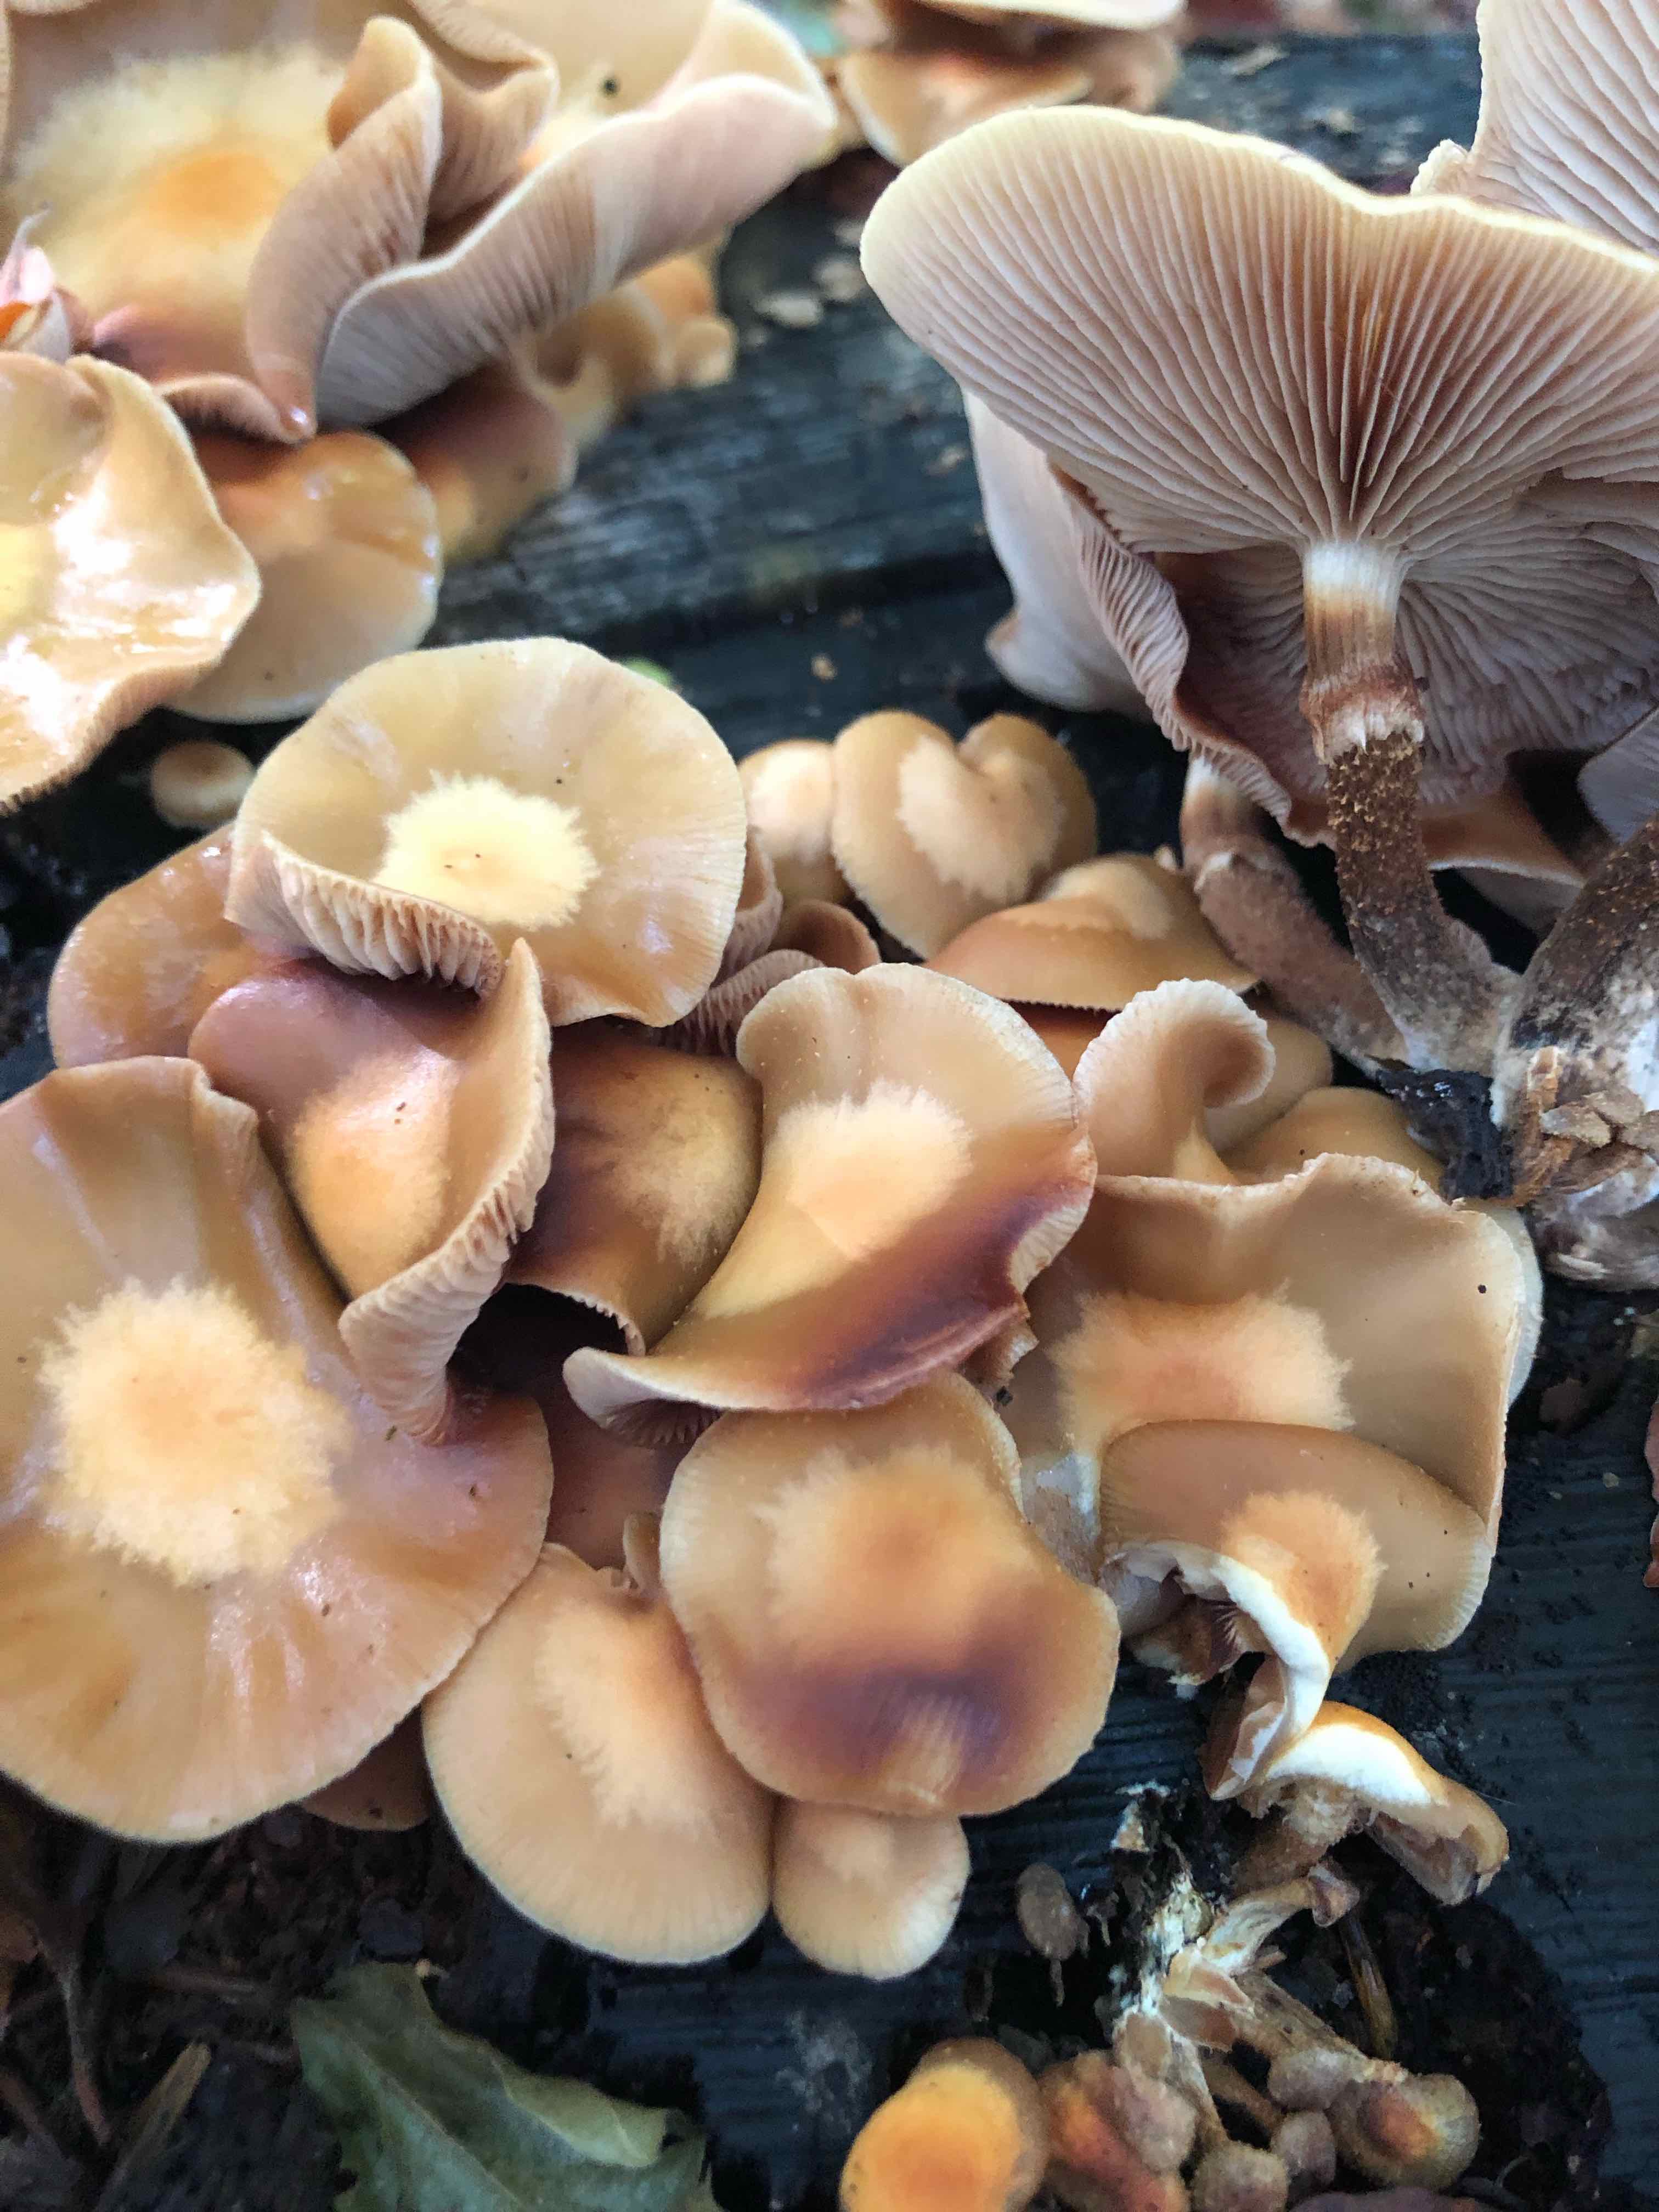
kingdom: Fungi
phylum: Basidiomycota
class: Agaricomycetes
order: Agaricales
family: Strophariaceae
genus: Kuehneromyces
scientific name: Kuehneromyces mutabilis
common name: foranderlig skælhat
